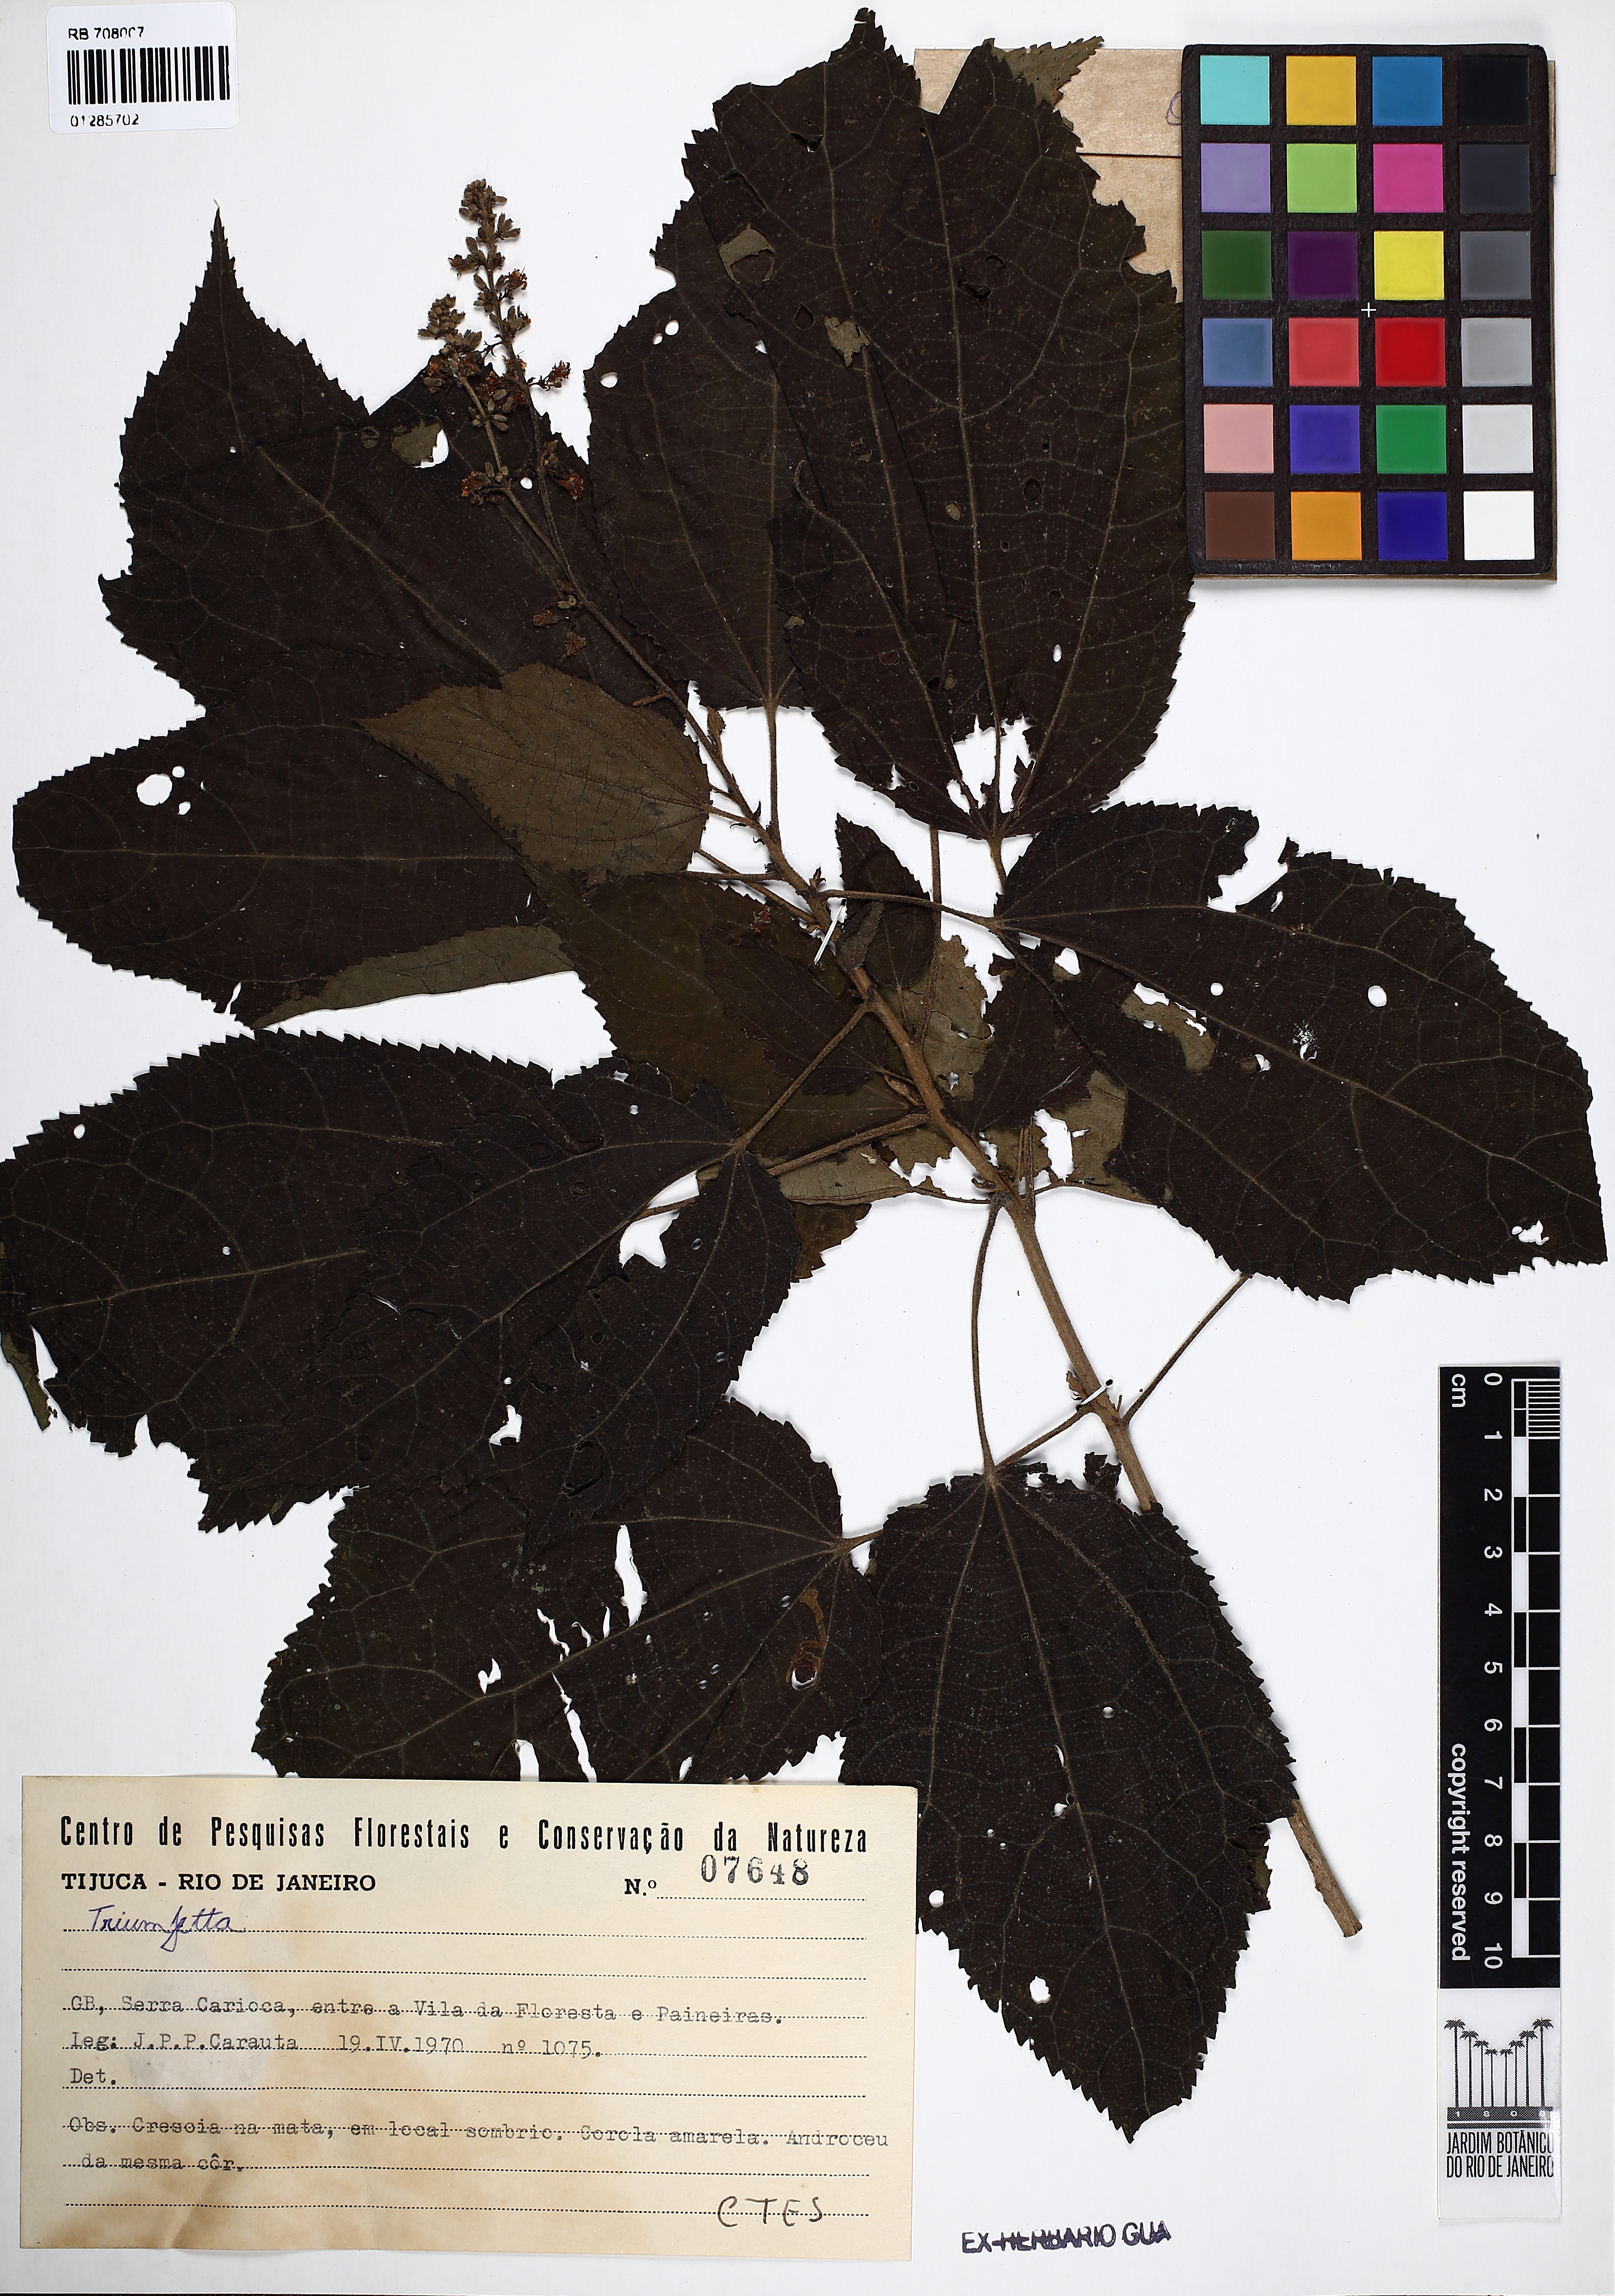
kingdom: Plantae
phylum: Tracheophyta
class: Magnoliopsida
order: Malvales
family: Malvaceae
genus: Triumfetta
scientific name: Triumfetta
